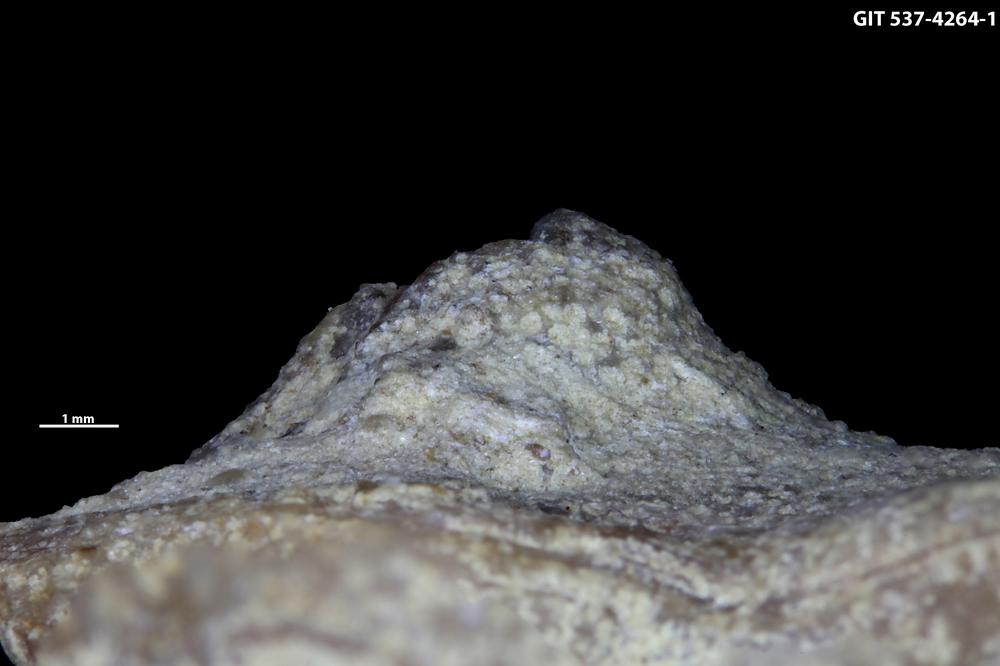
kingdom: Animalia
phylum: Cnidaria
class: Scyphozoa
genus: Climacoconus
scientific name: Climacoconus
